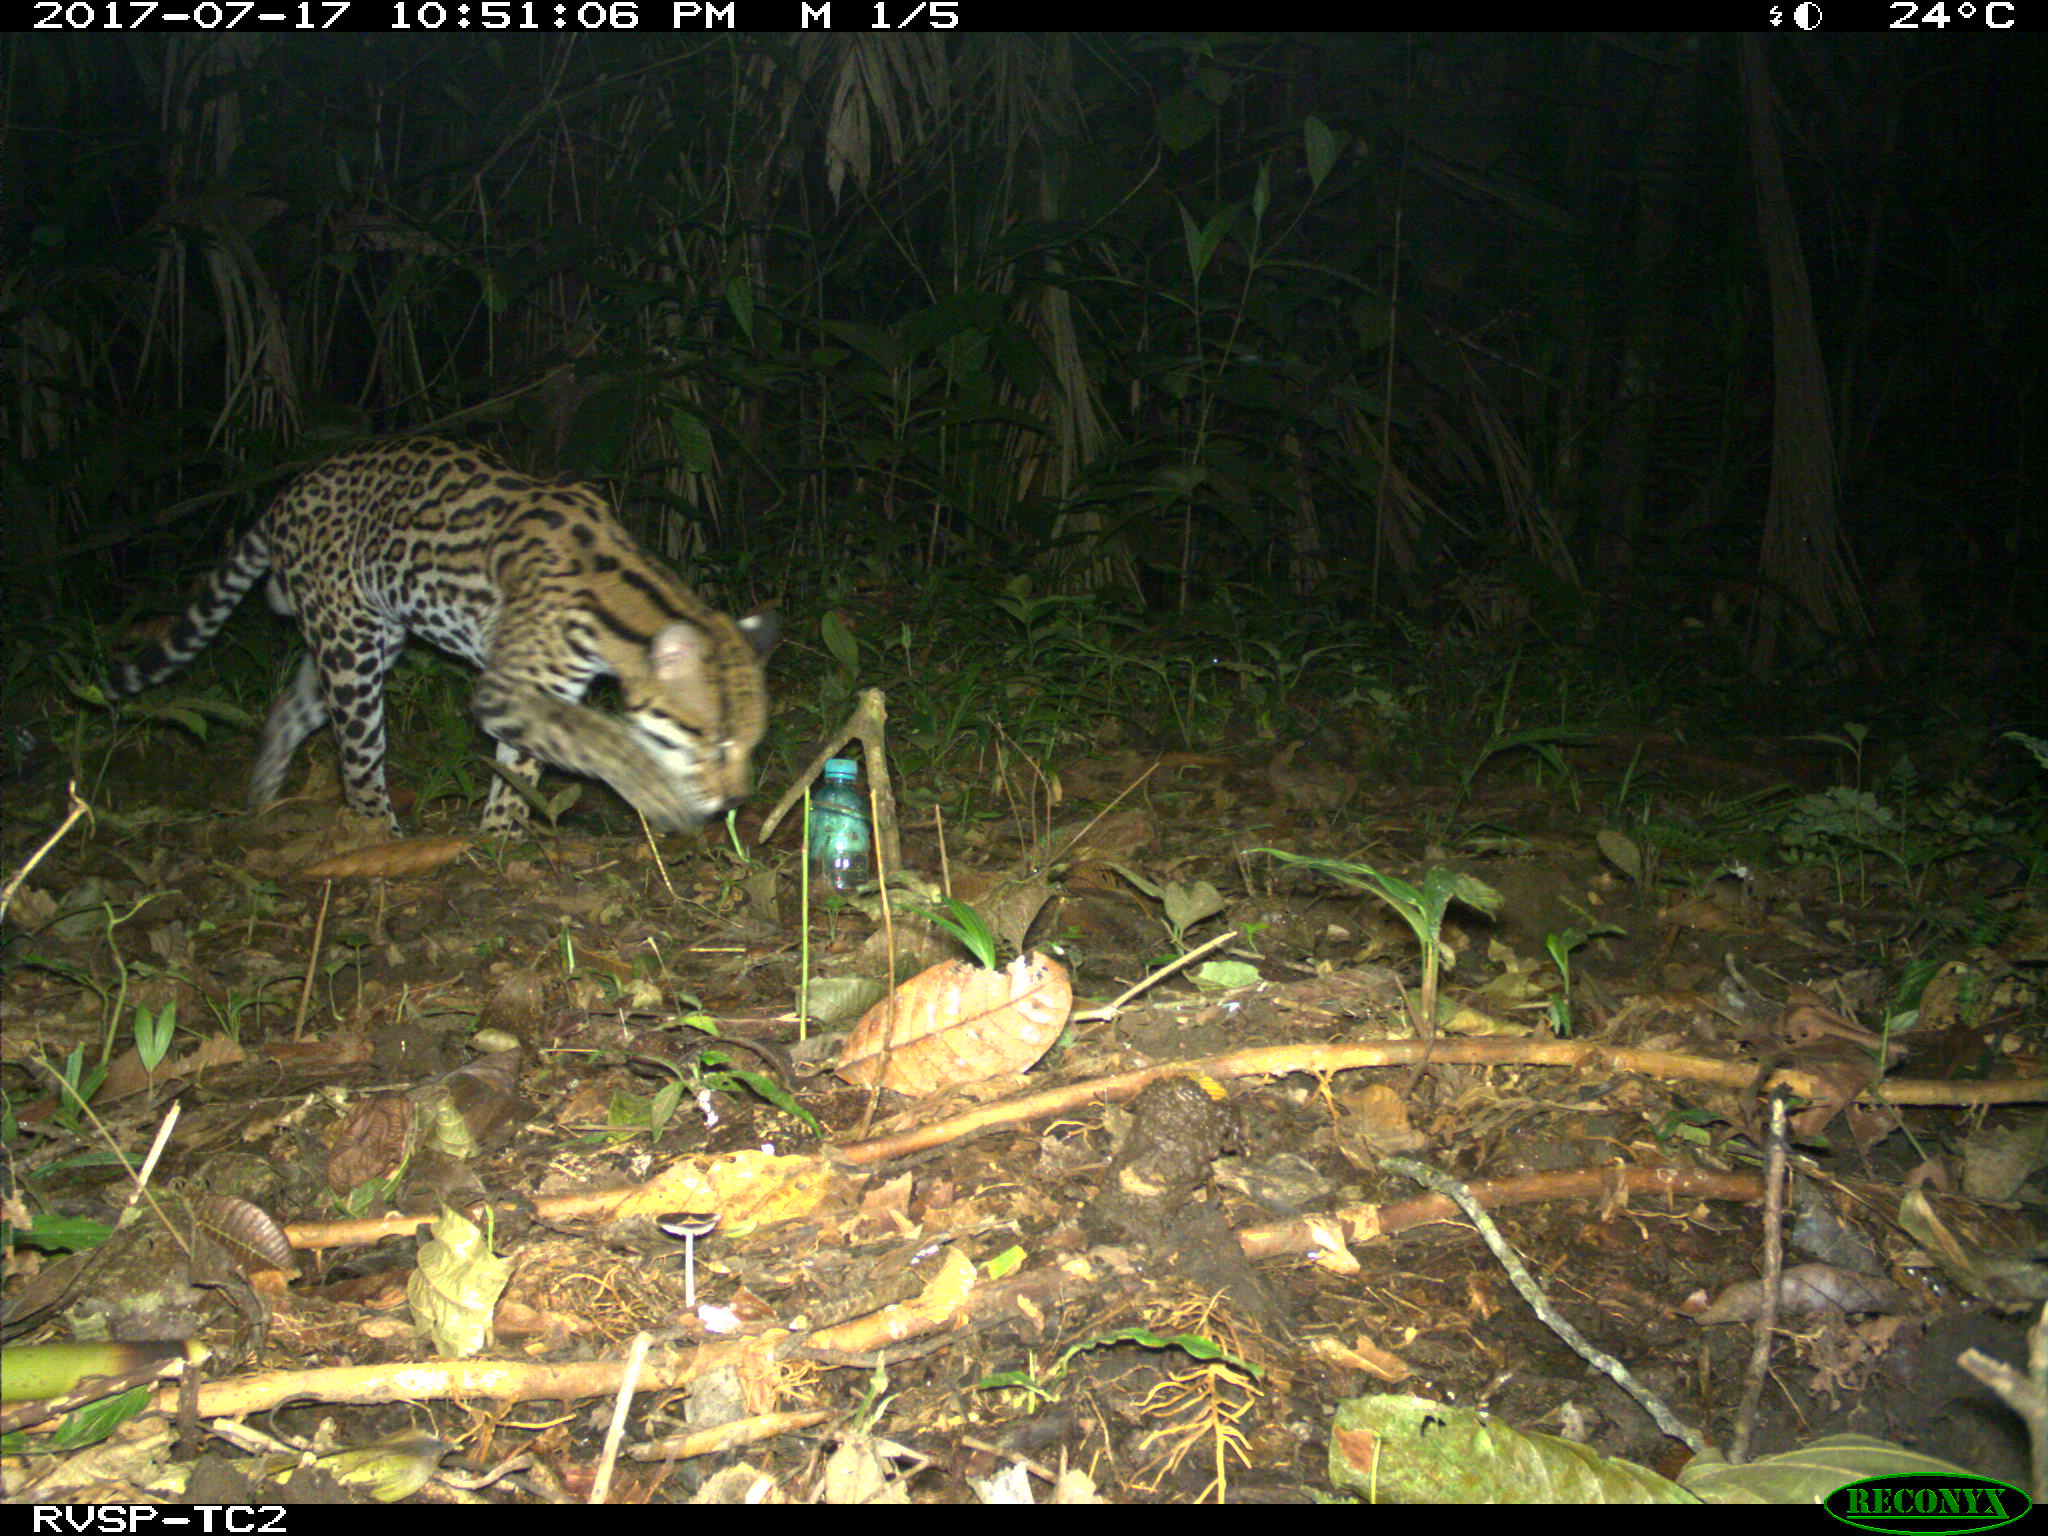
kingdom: Animalia
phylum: Chordata
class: Mammalia
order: Carnivora
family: Felidae
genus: Leopardus
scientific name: Leopardus pardalis
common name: Ocelot
